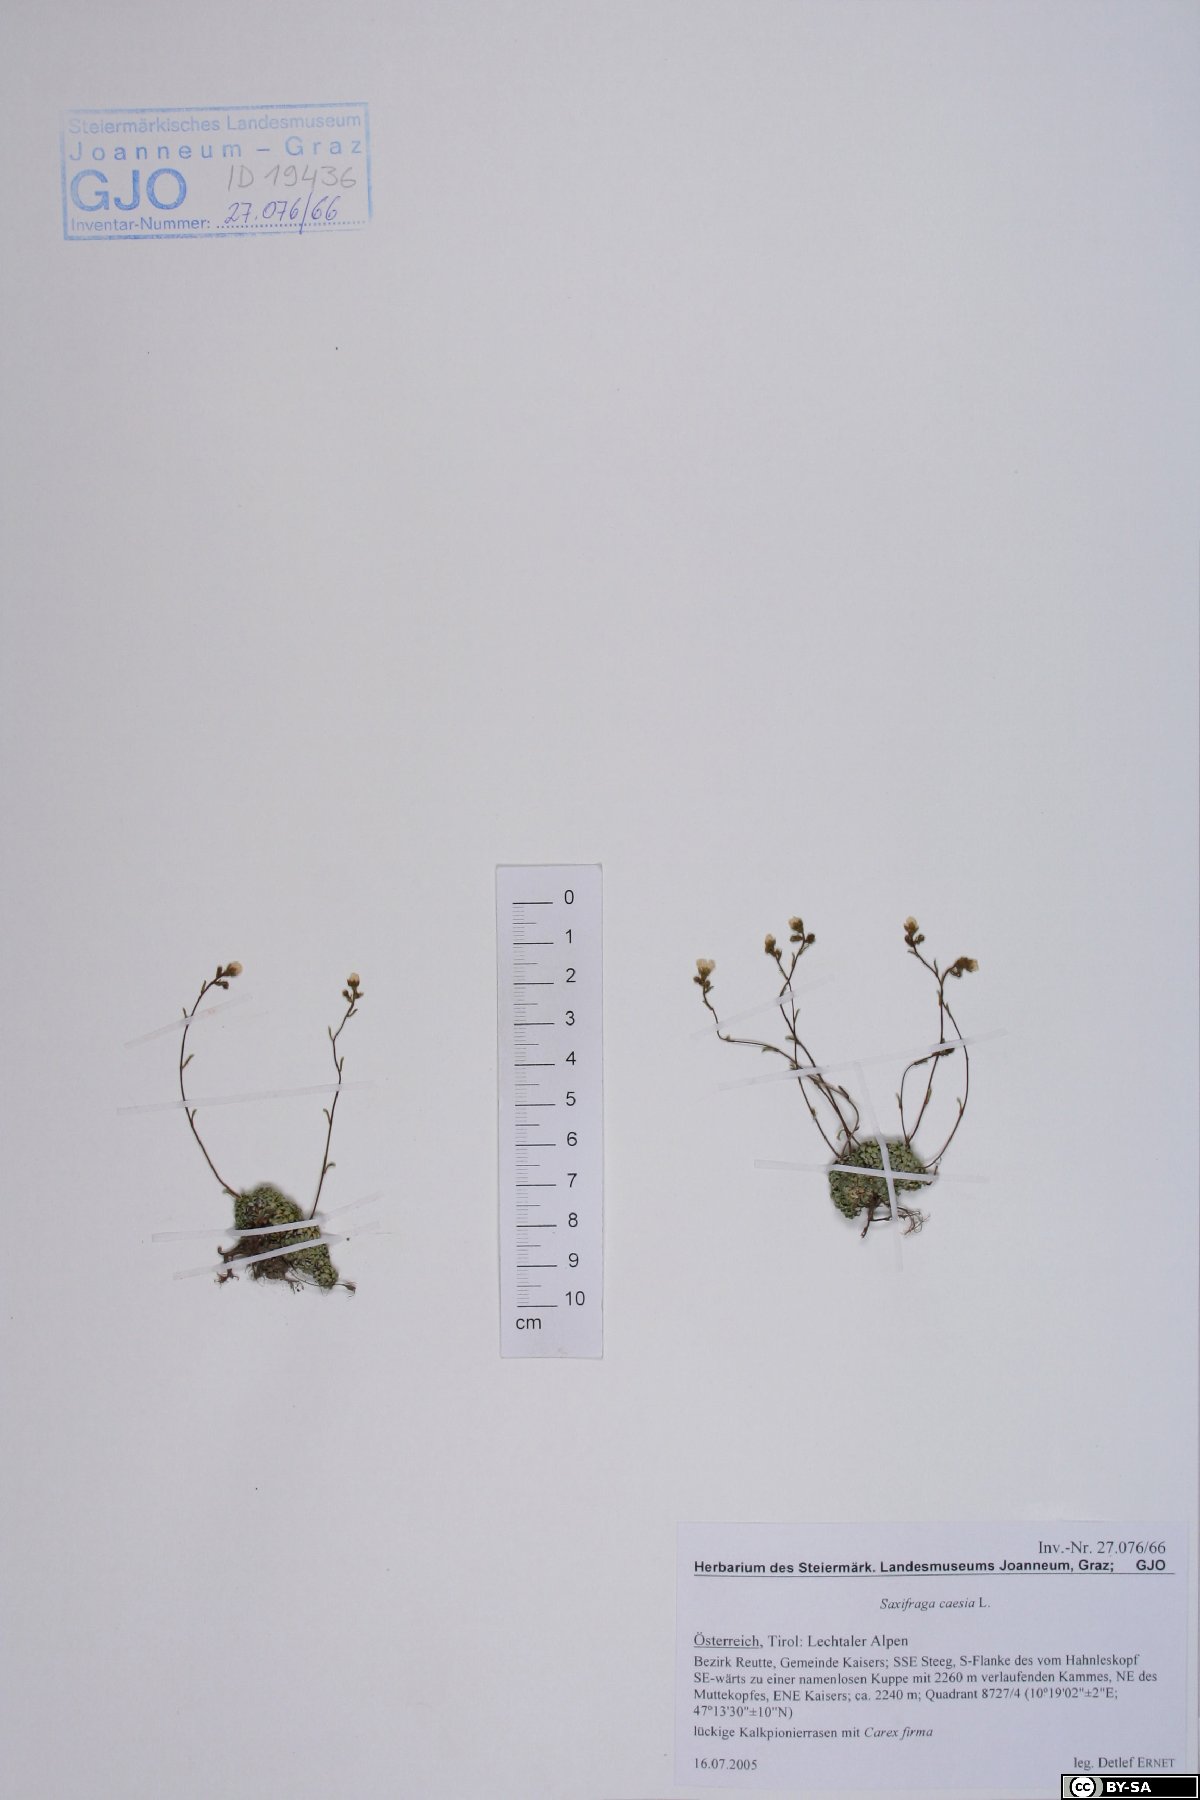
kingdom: Plantae
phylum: Tracheophyta
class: Magnoliopsida
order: Saxifragales
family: Saxifragaceae
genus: Saxifraga
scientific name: Saxifraga caesia
